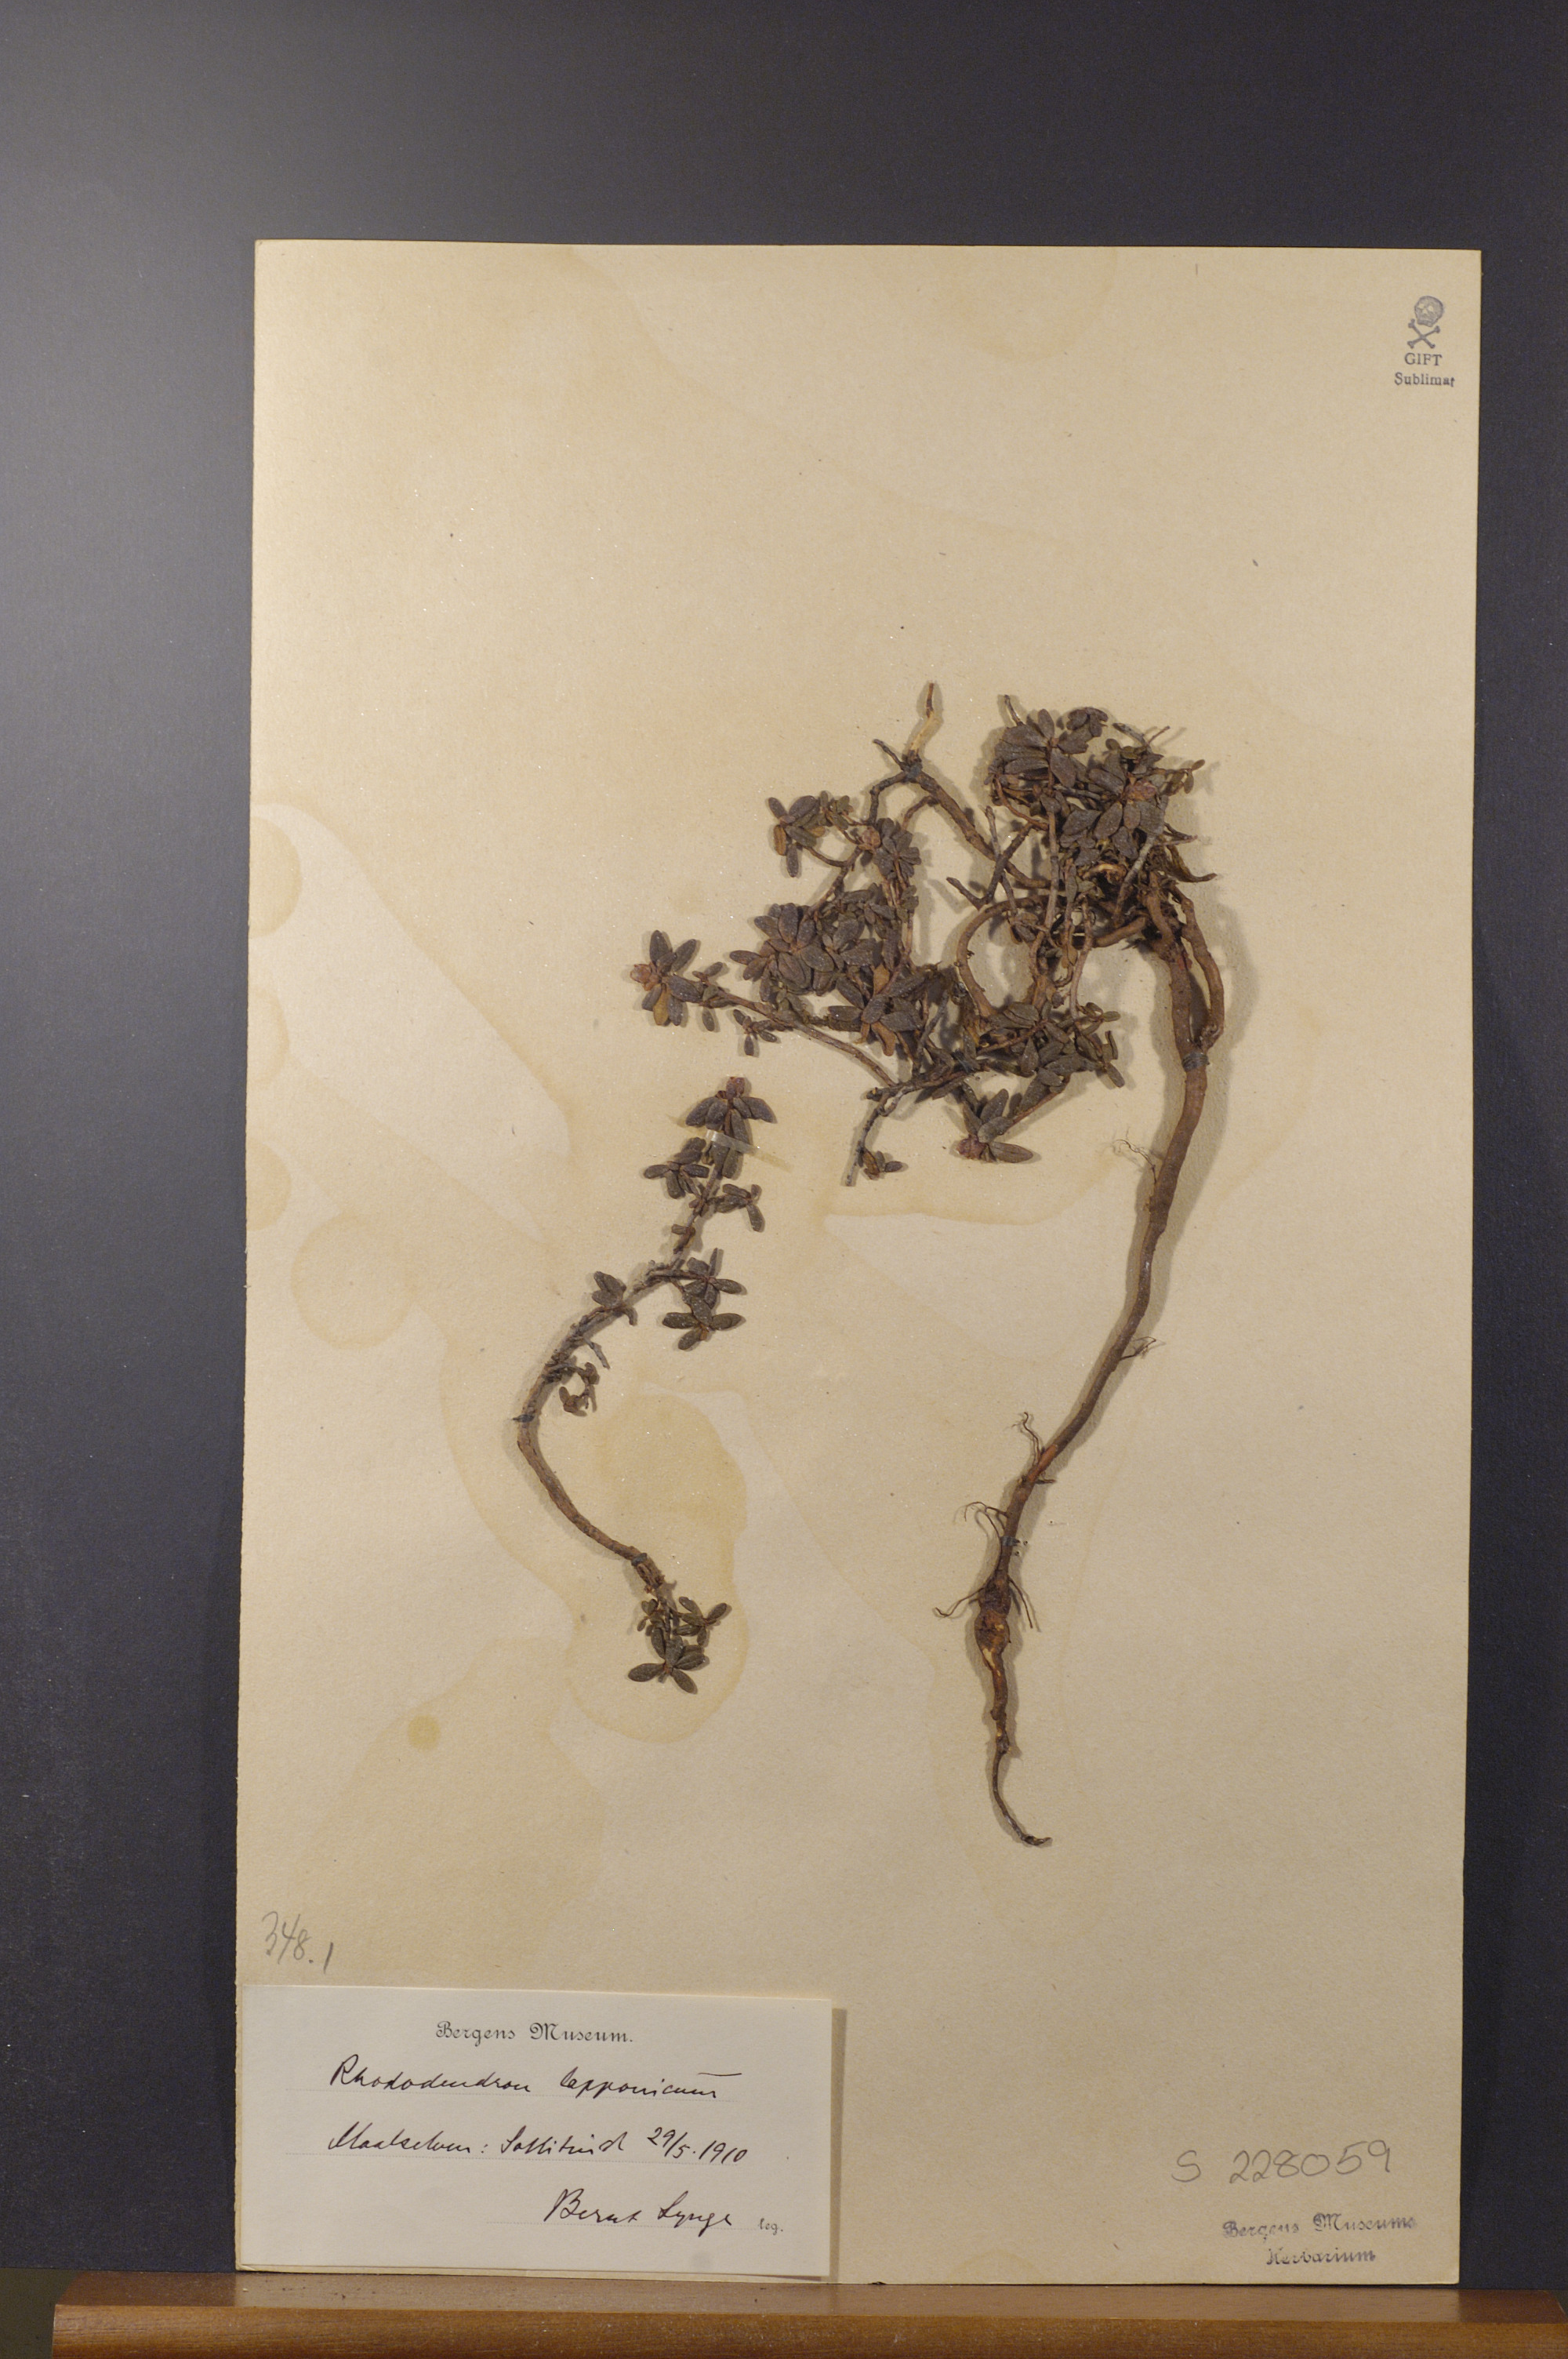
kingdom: Plantae
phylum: Tracheophyta
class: Magnoliopsida
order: Ericales
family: Ericaceae
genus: Rhododendron
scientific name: Rhododendron lapponicum
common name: Lapland rhododendron
